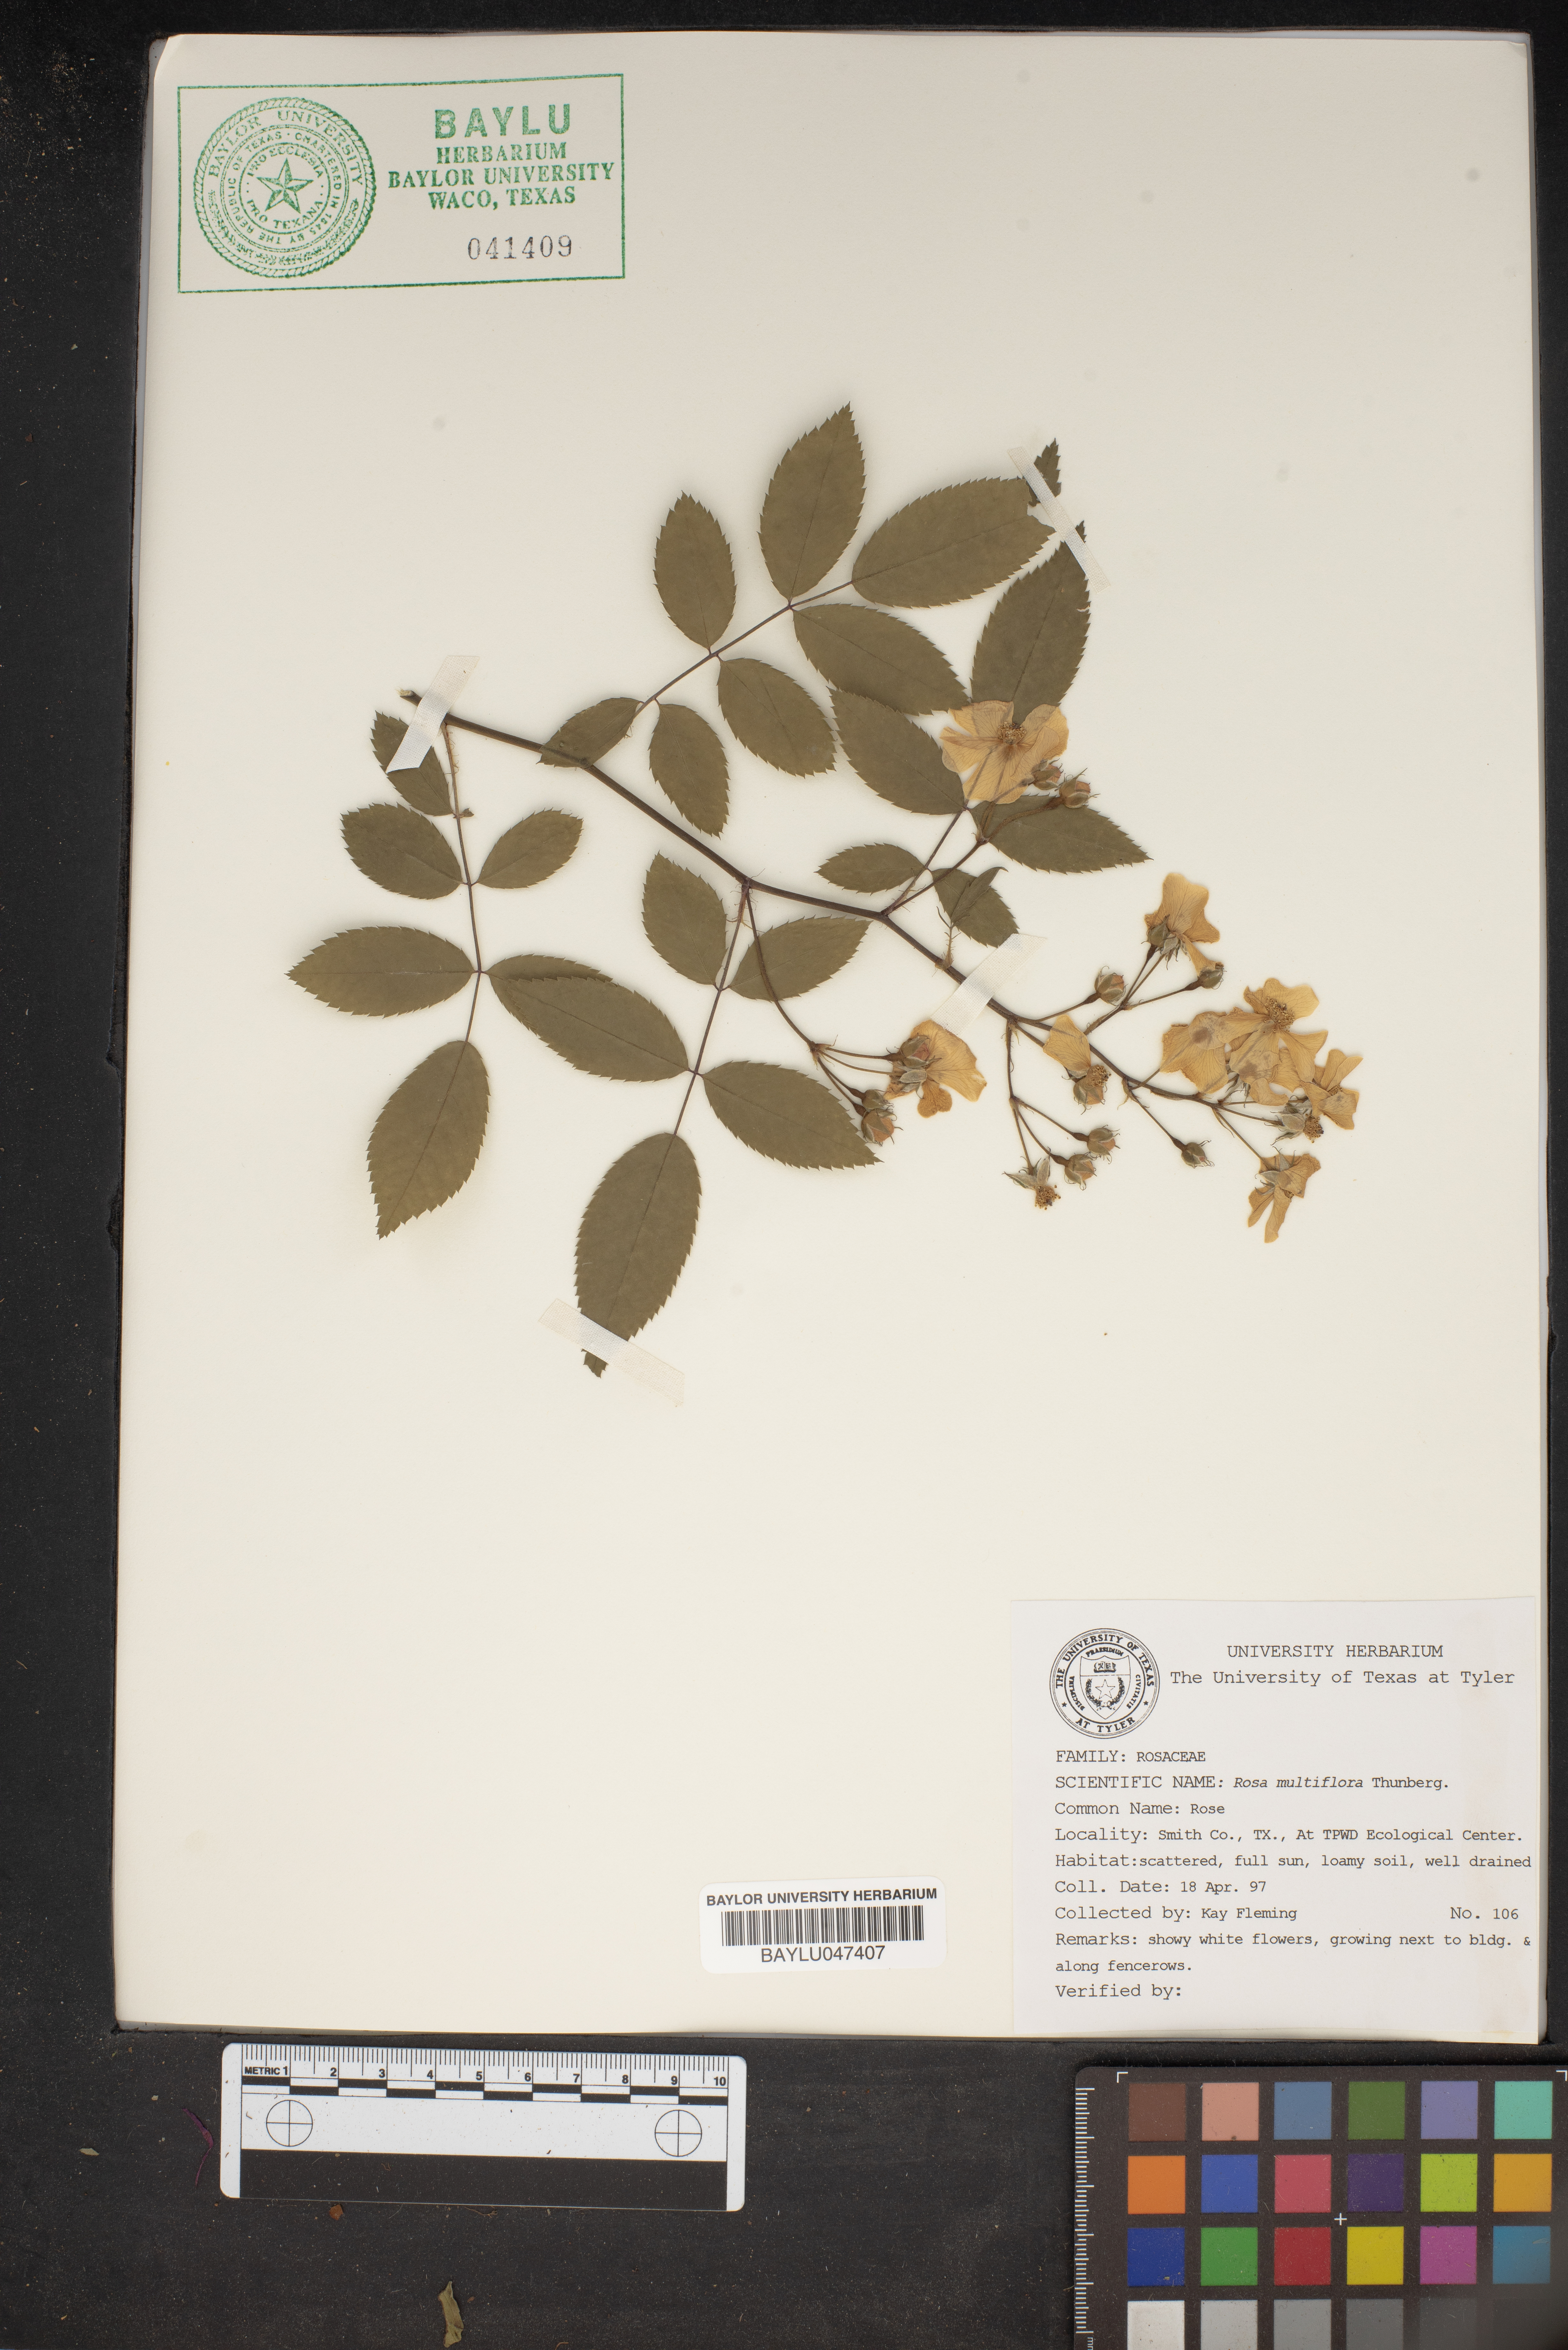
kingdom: Plantae
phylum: Tracheophyta
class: Magnoliopsida
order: Rosales
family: Rosaceae
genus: Rosa
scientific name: Rosa multiflora
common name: Multiflora rose
